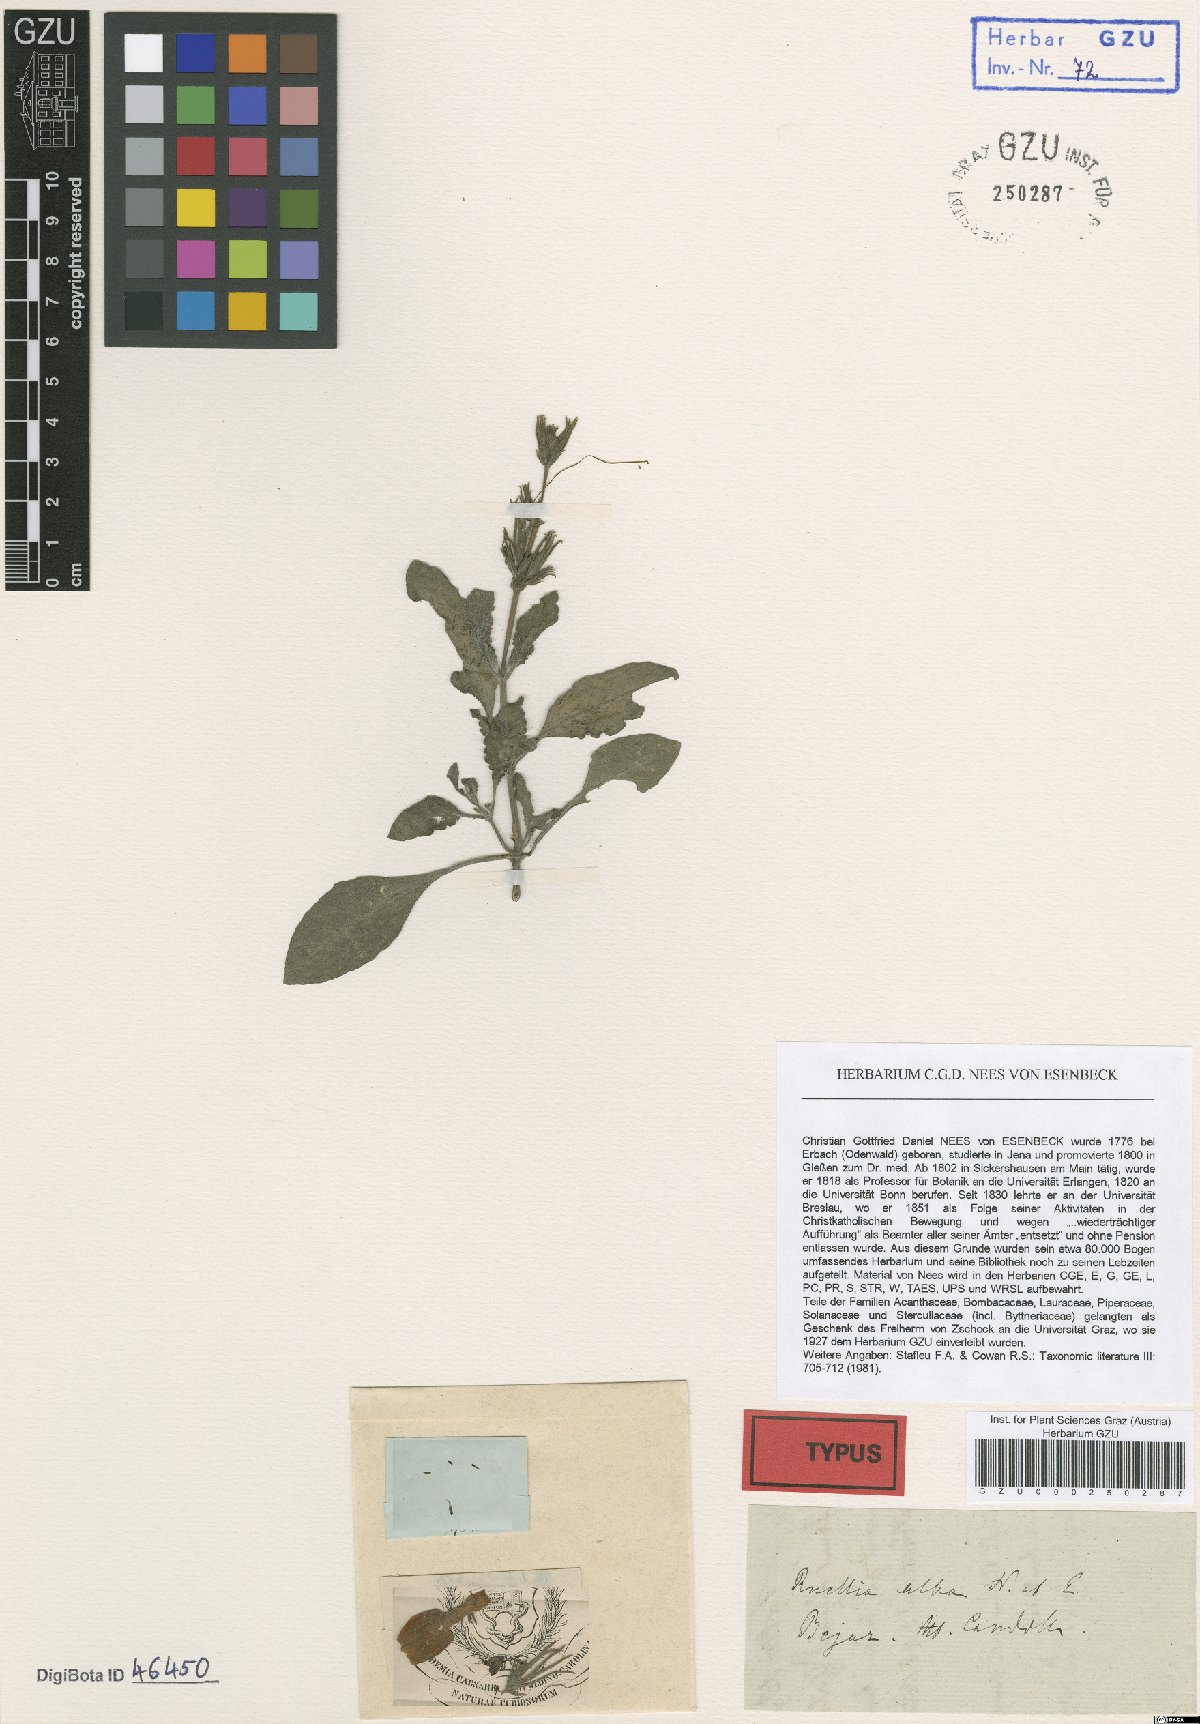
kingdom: Plantae
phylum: Tracheophyta
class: Magnoliopsida
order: Lamiales
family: Acanthaceae
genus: Ruellia
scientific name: Ruellia riedeliana
